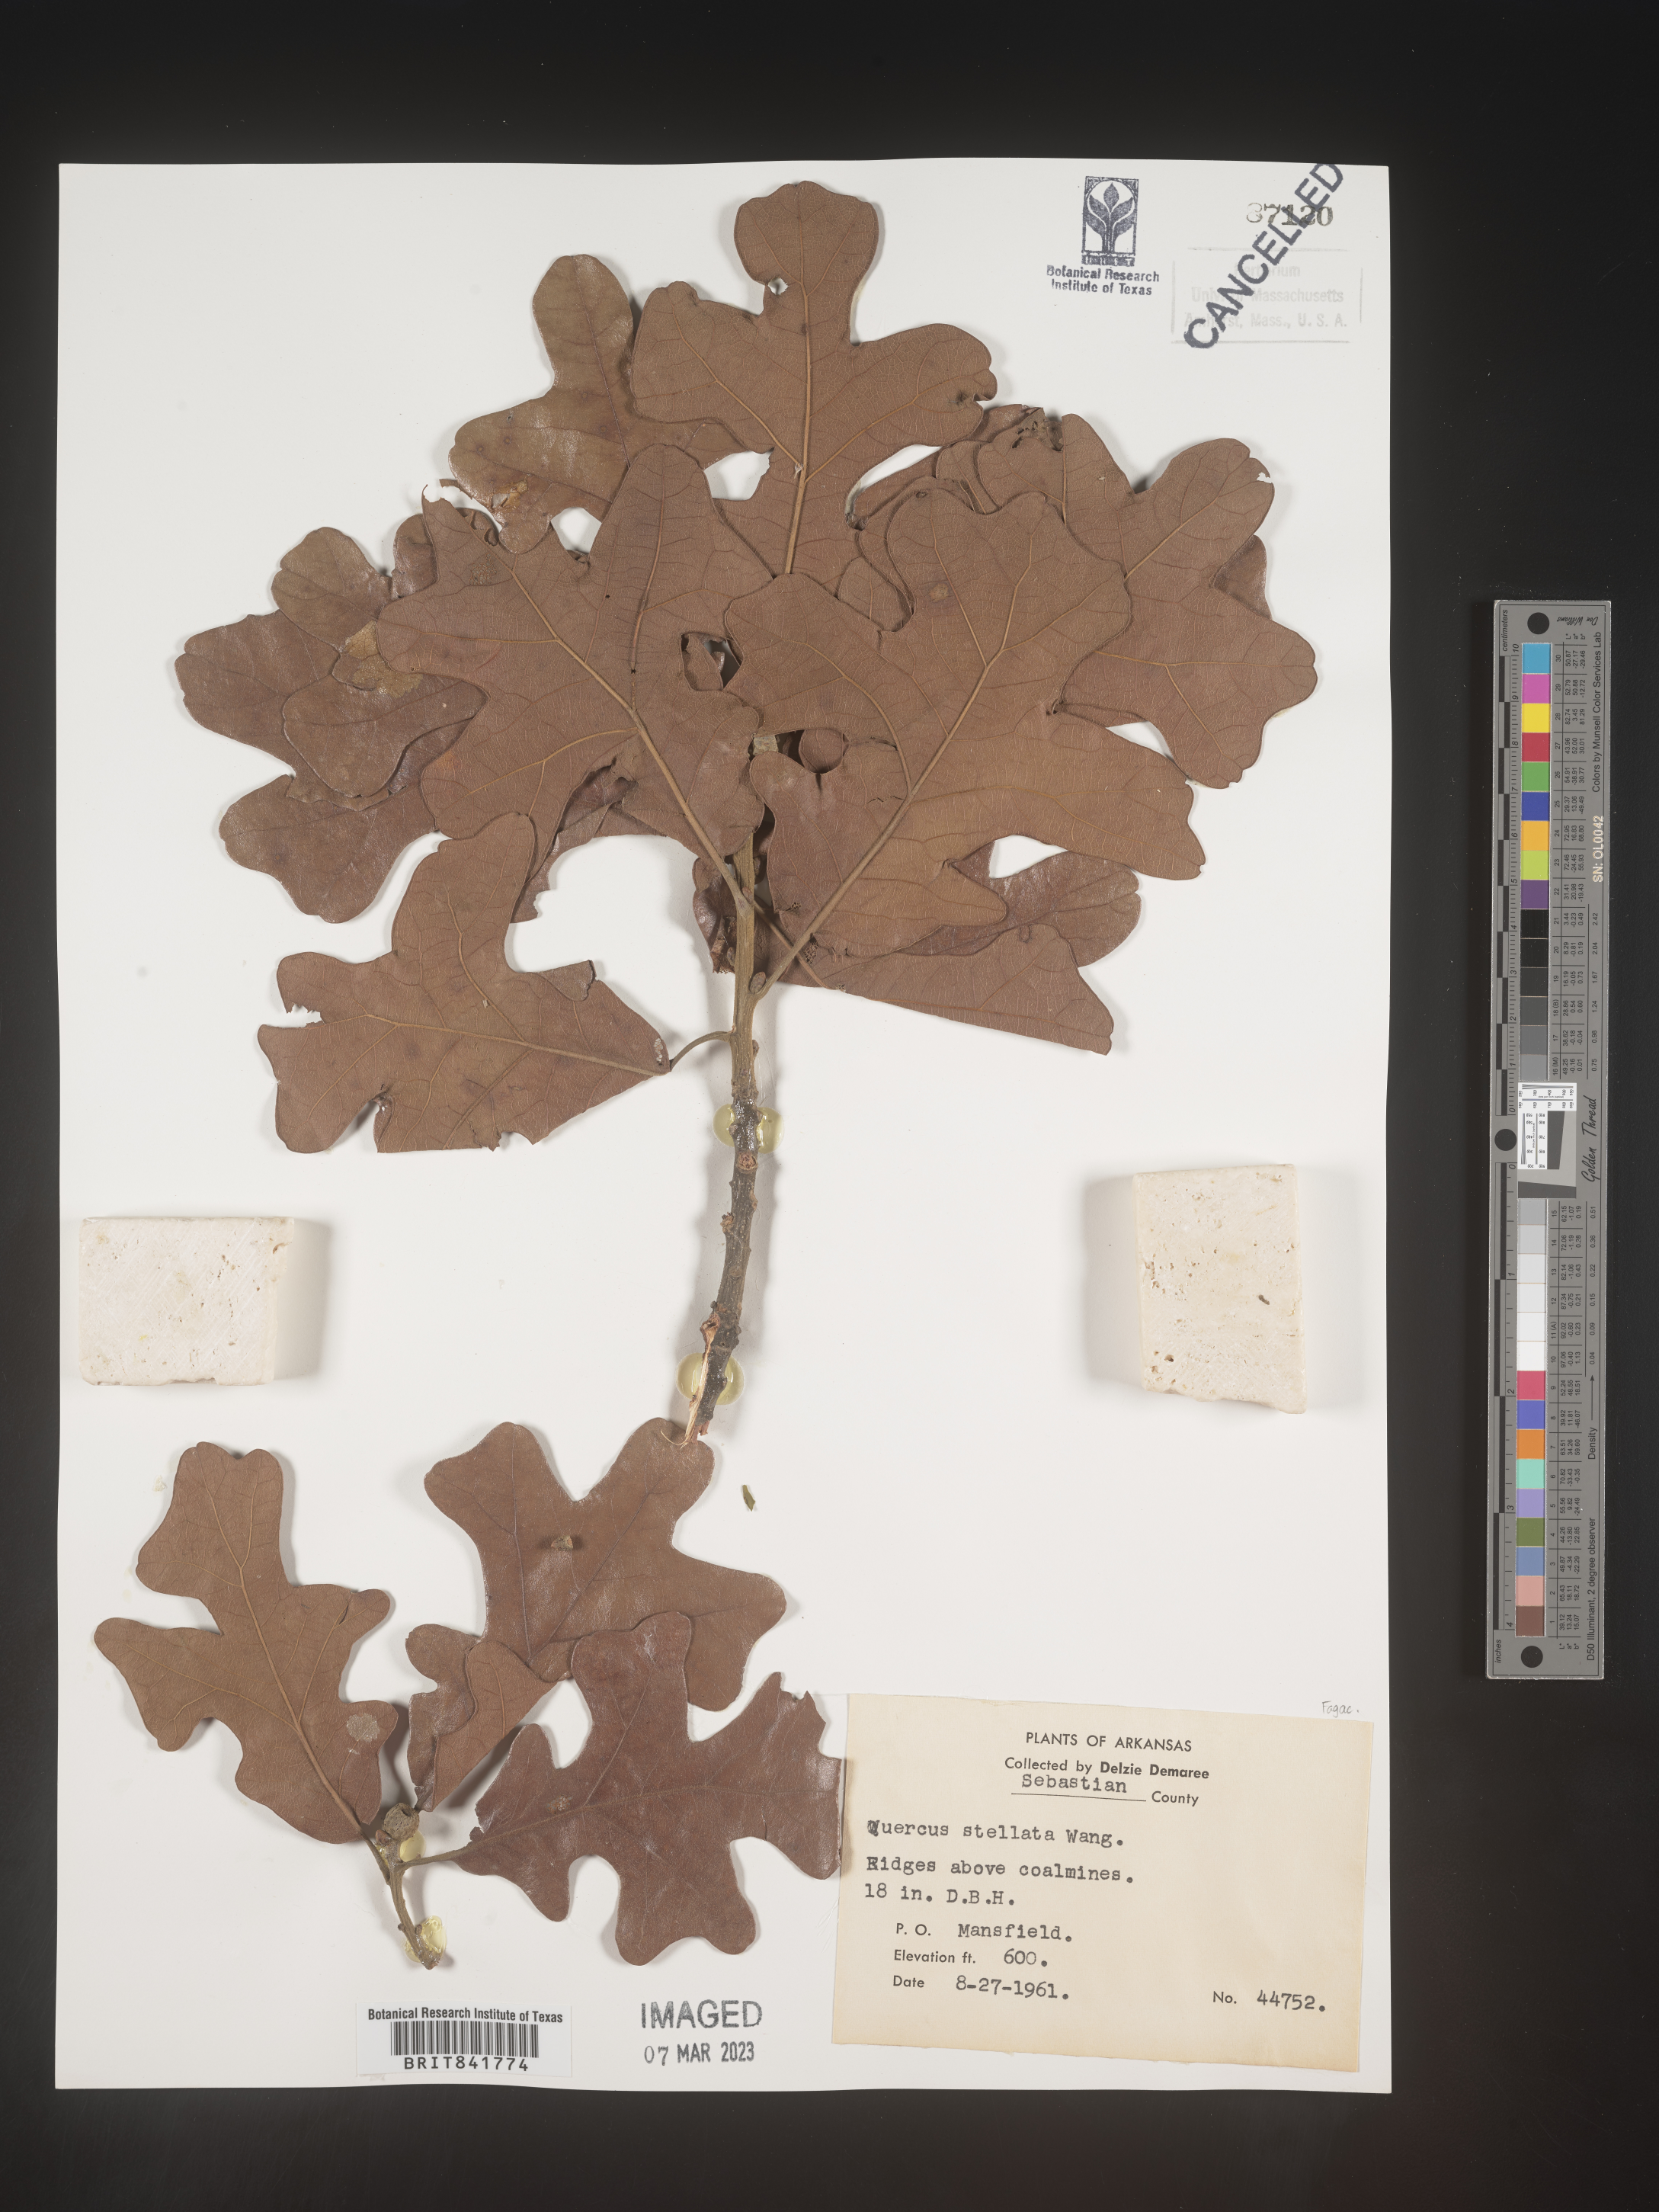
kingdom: Plantae
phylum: Tracheophyta
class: Magnoliopsida
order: Fagales
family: Fagaceae
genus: Quercus
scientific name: Quercus stellata
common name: Post oak
